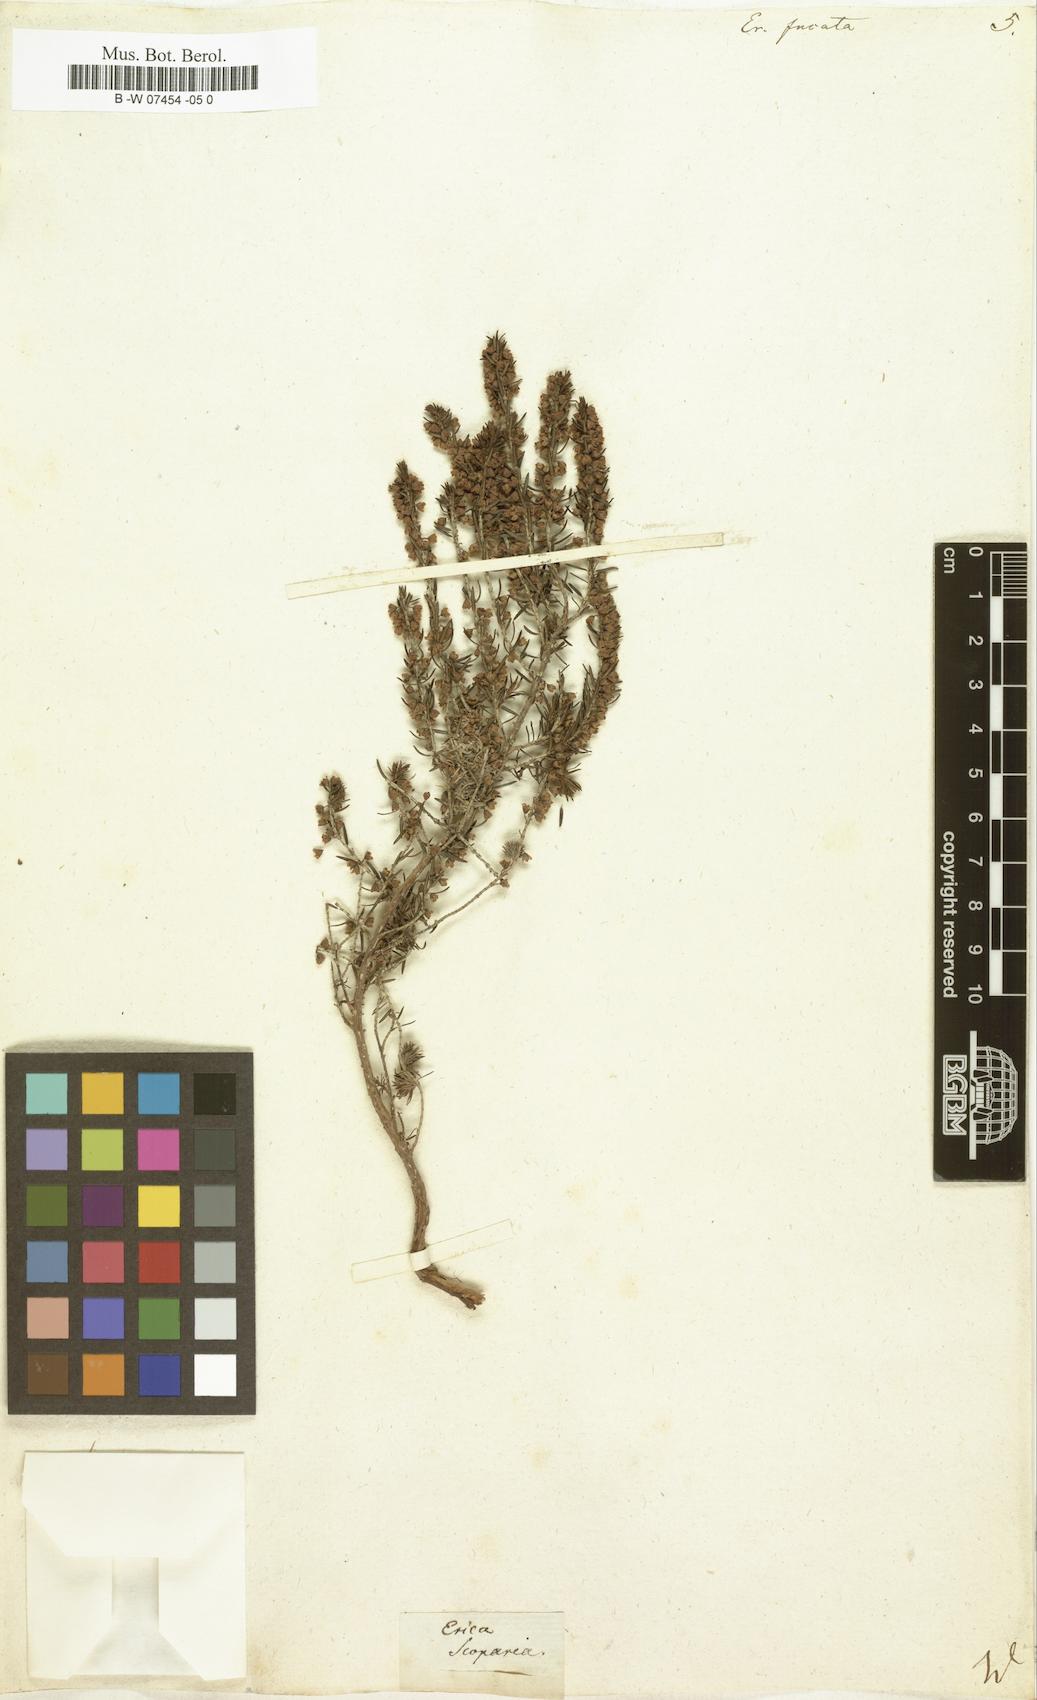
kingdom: Plantae
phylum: Tracheophyta
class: Magnoliopsida
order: Ericales
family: Ericaceae
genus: Erica
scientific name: Erica scoparia
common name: Green heather
